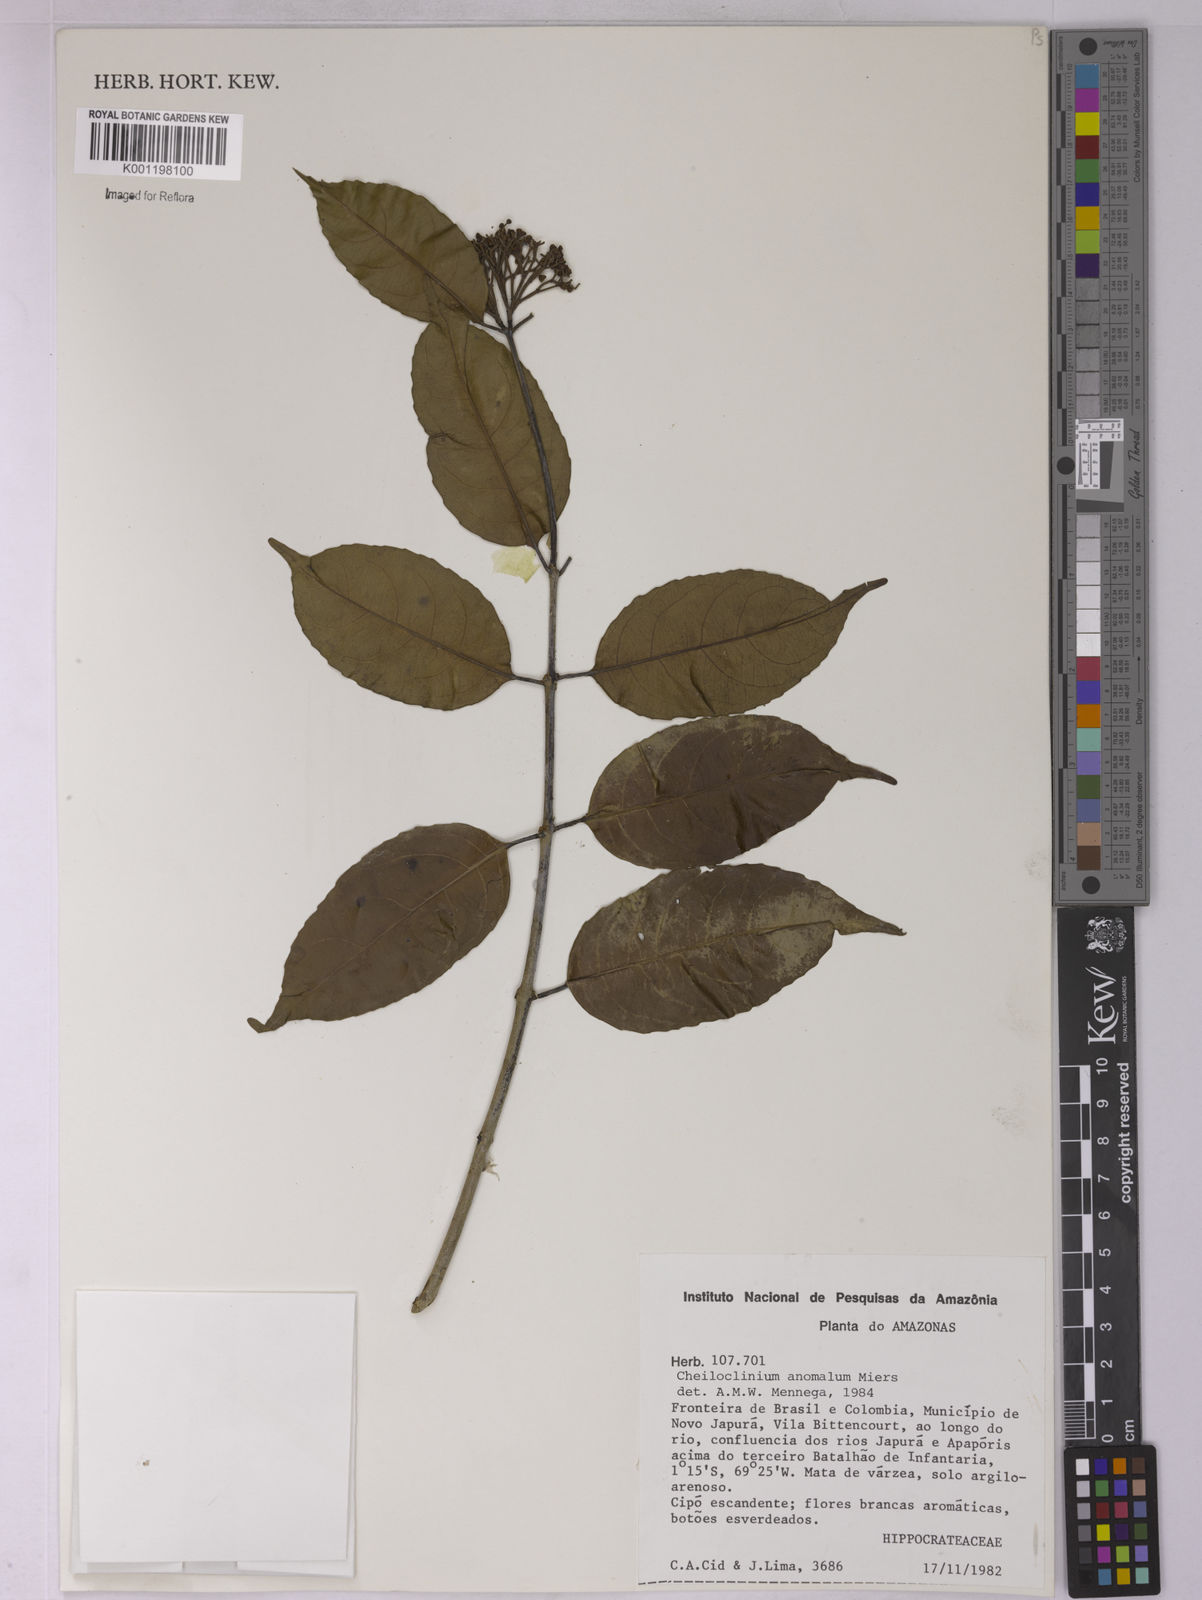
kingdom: Plantae
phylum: Tracheophyta
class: Magnoliopsida
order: Celastrales
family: Celastraceae
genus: Cheiloclinium
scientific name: Cheiloclinium anomalum
